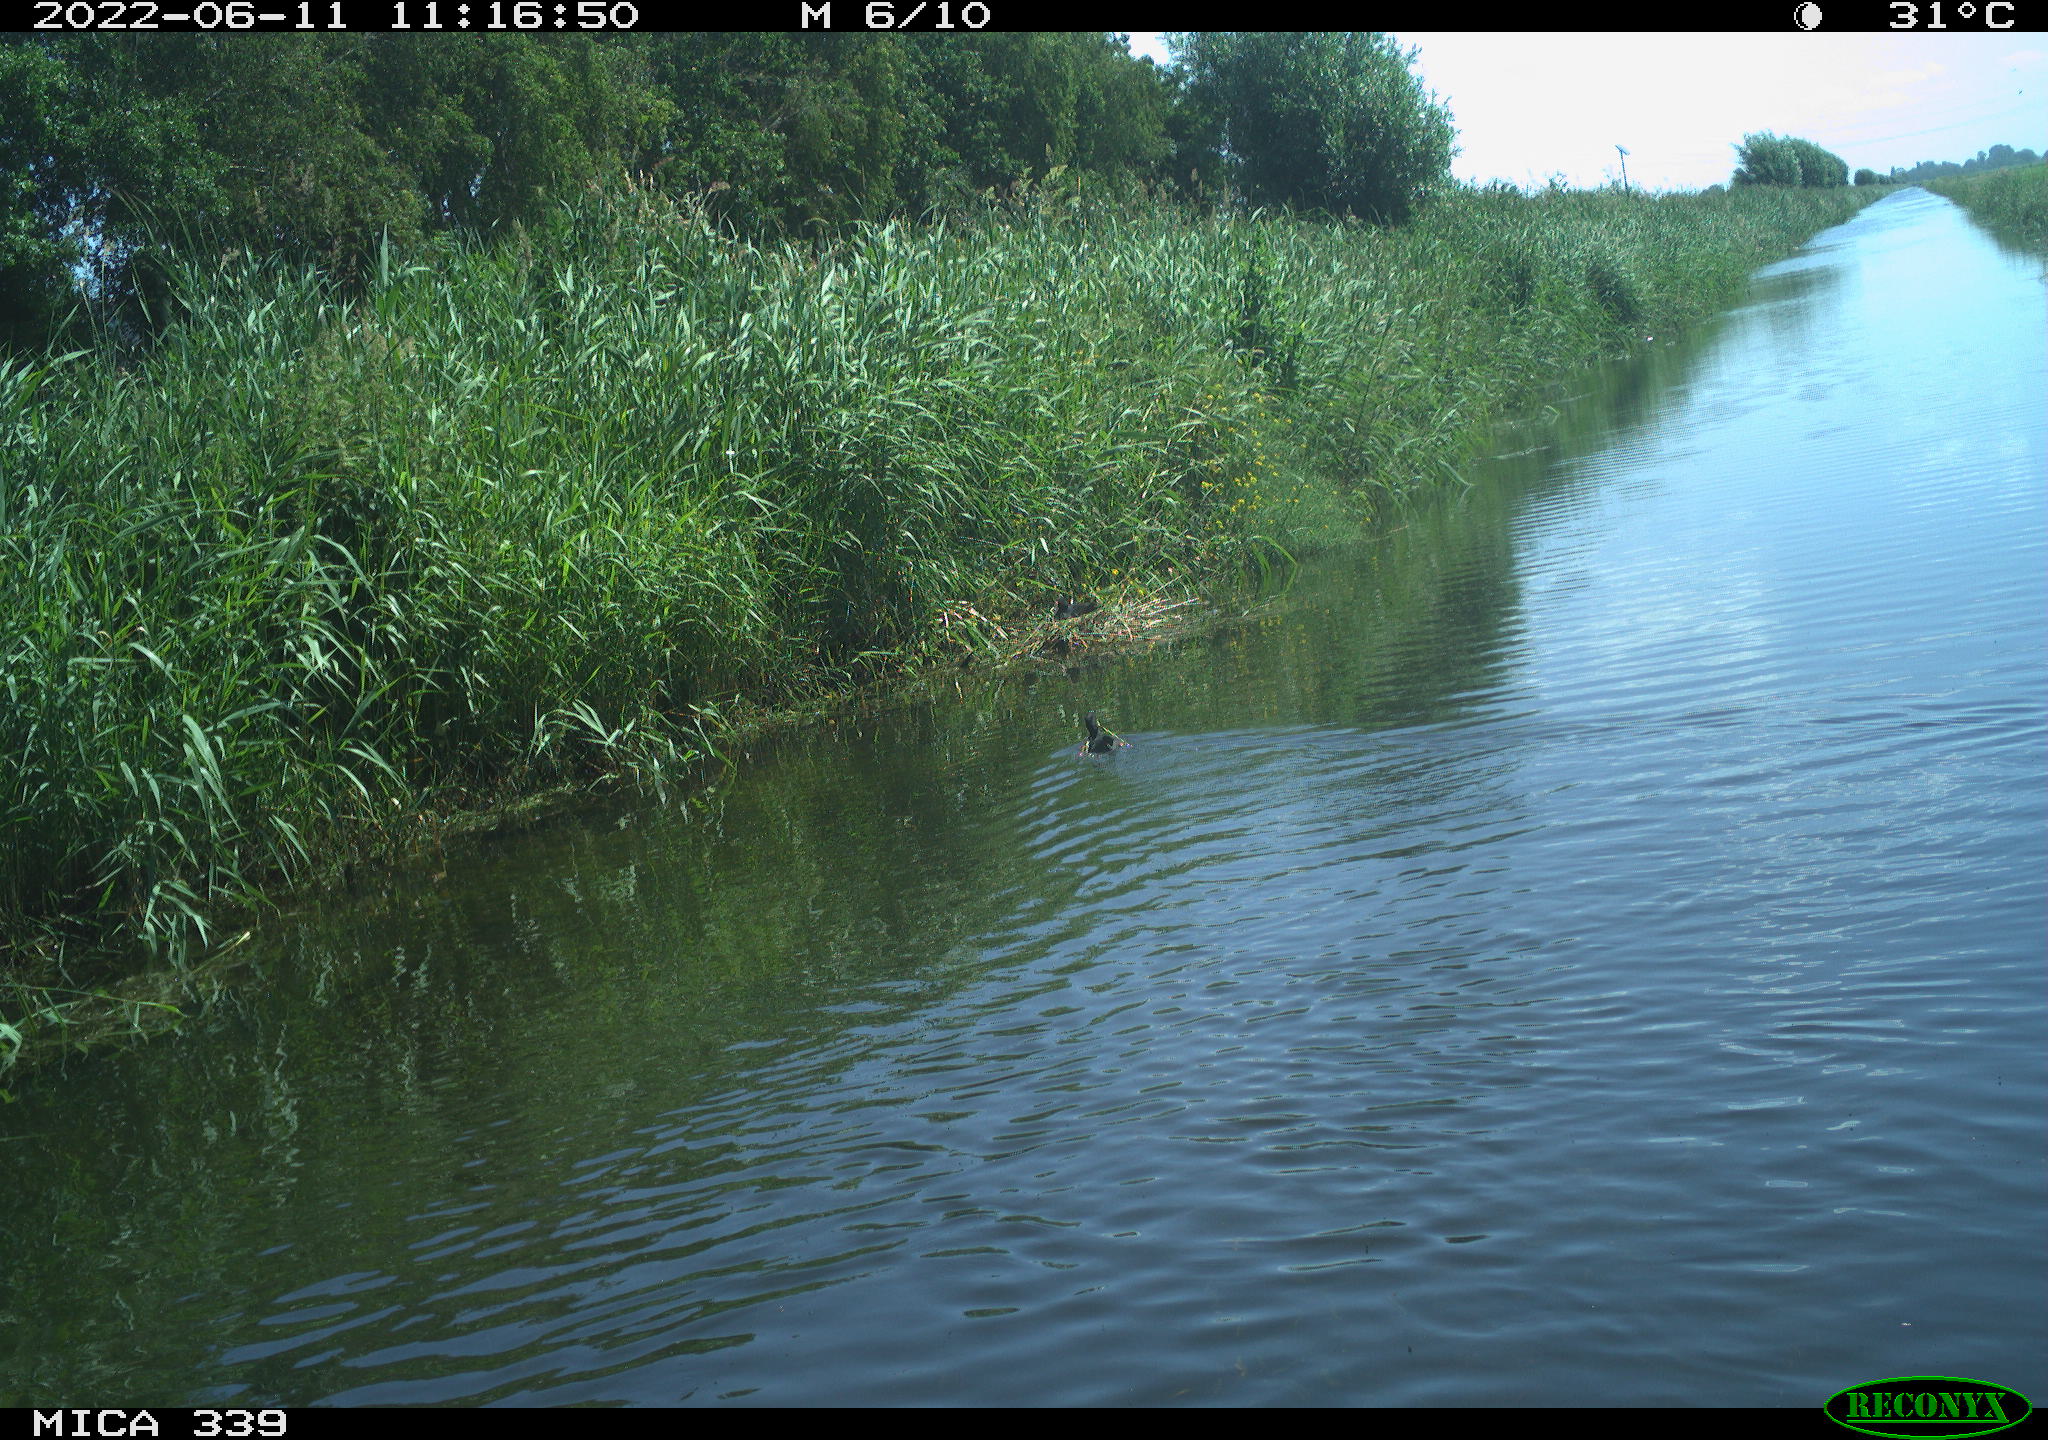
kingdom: Animalia
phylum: Chordata
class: Aves
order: Gruiformes
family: Rallidae
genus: Fulica
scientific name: Fulica atra
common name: Eurasian coot
